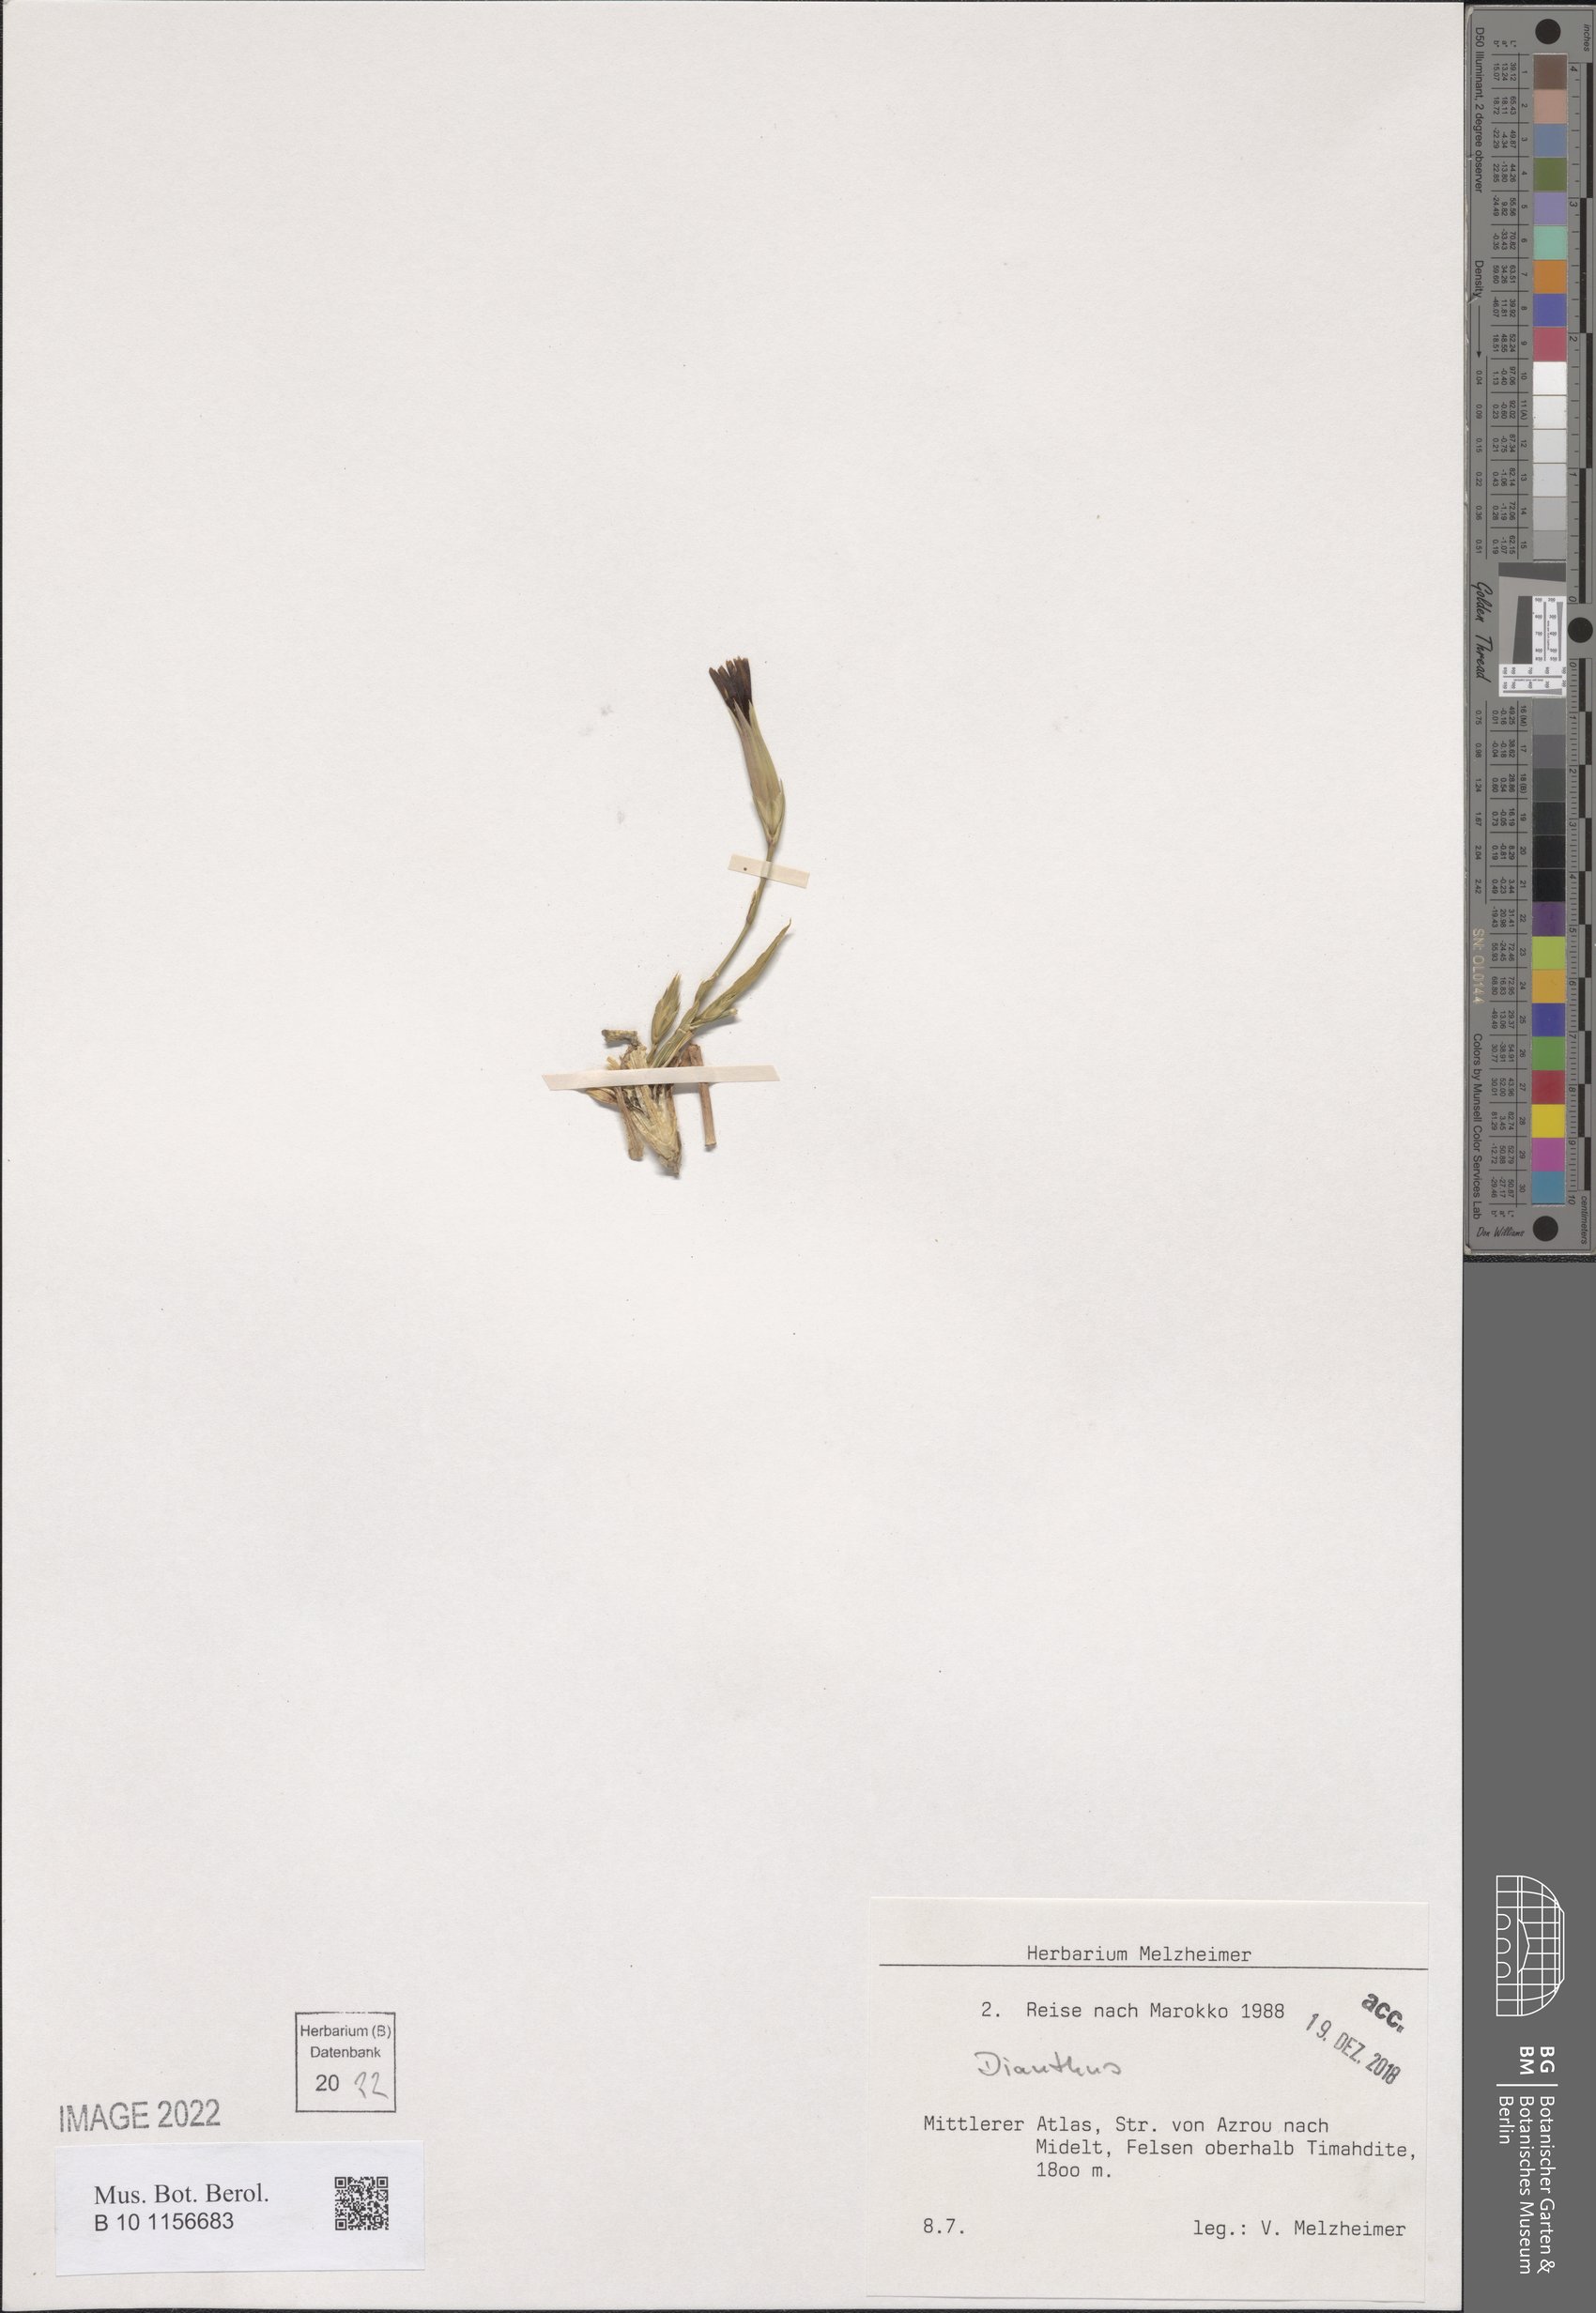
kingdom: Plantae
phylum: Tracheophyta
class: Magnoliopsida
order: Caryophyllales
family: Caryophyllaceae
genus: Dianthus
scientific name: Dianthus
